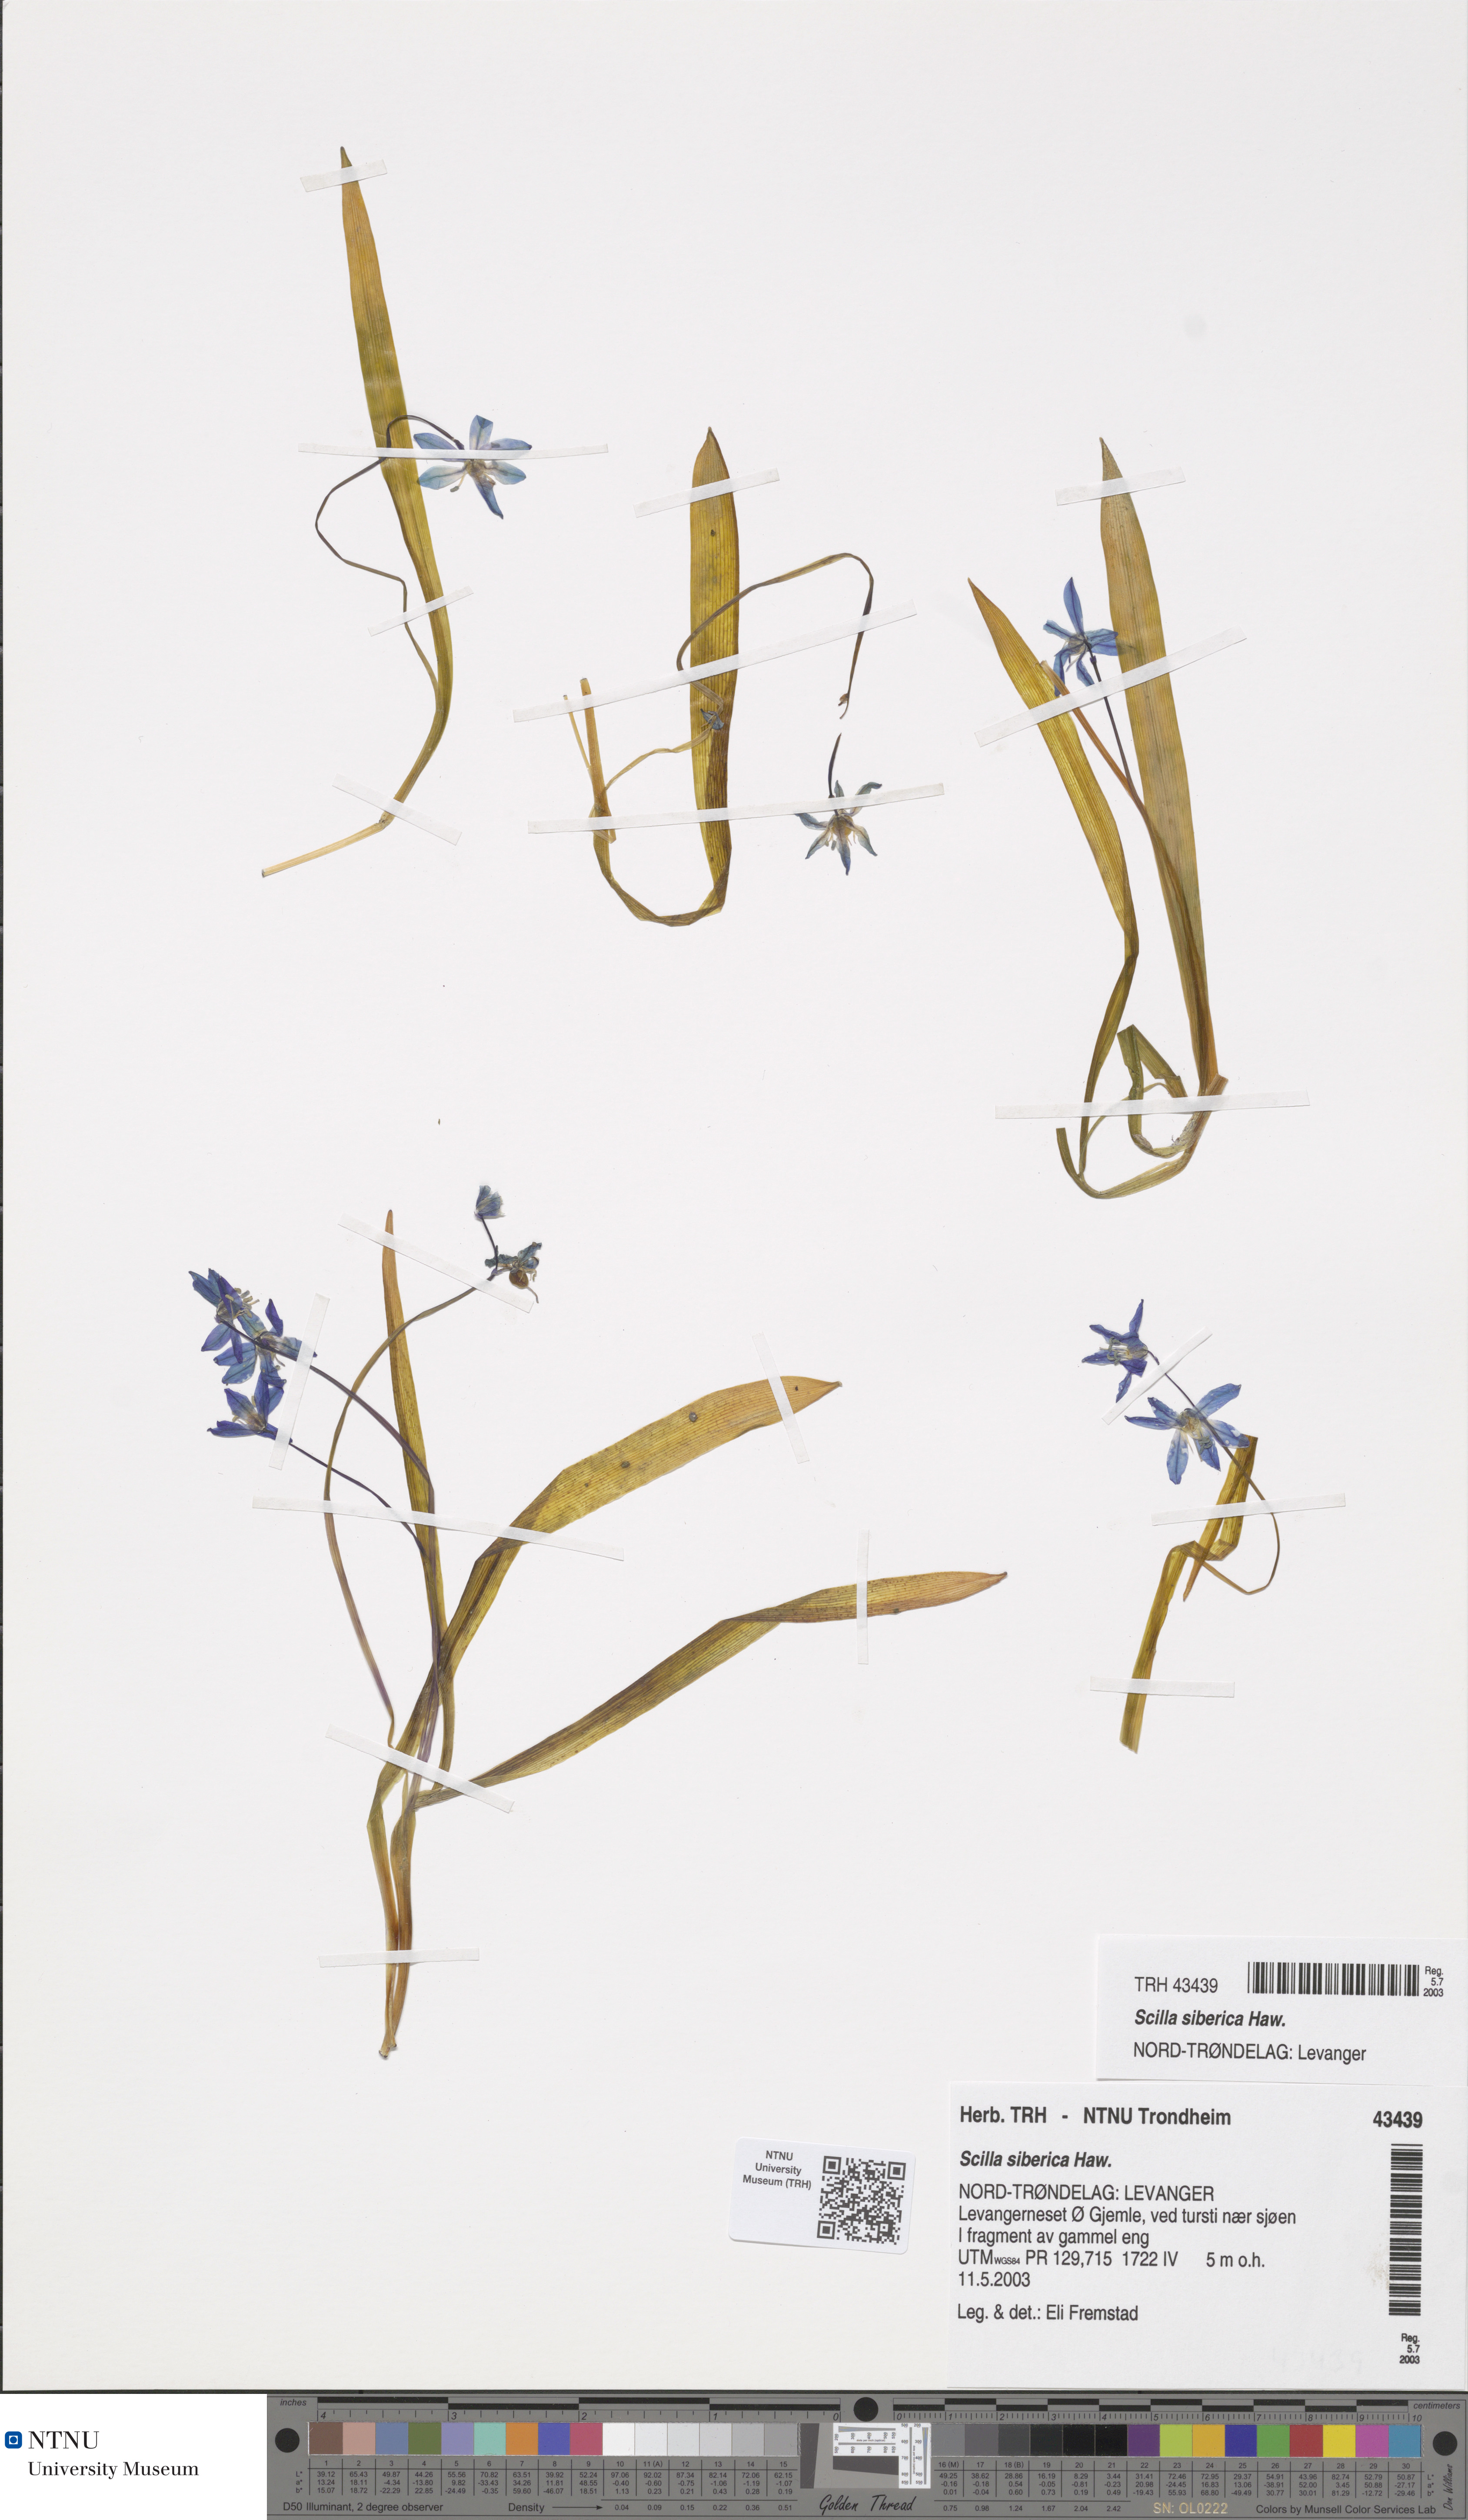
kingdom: Plantae
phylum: Tracheophyta
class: Liliopsida
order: Asparagales
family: Asparagaceae
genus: Scilla
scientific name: Scilla siberica
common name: Siberian squill
